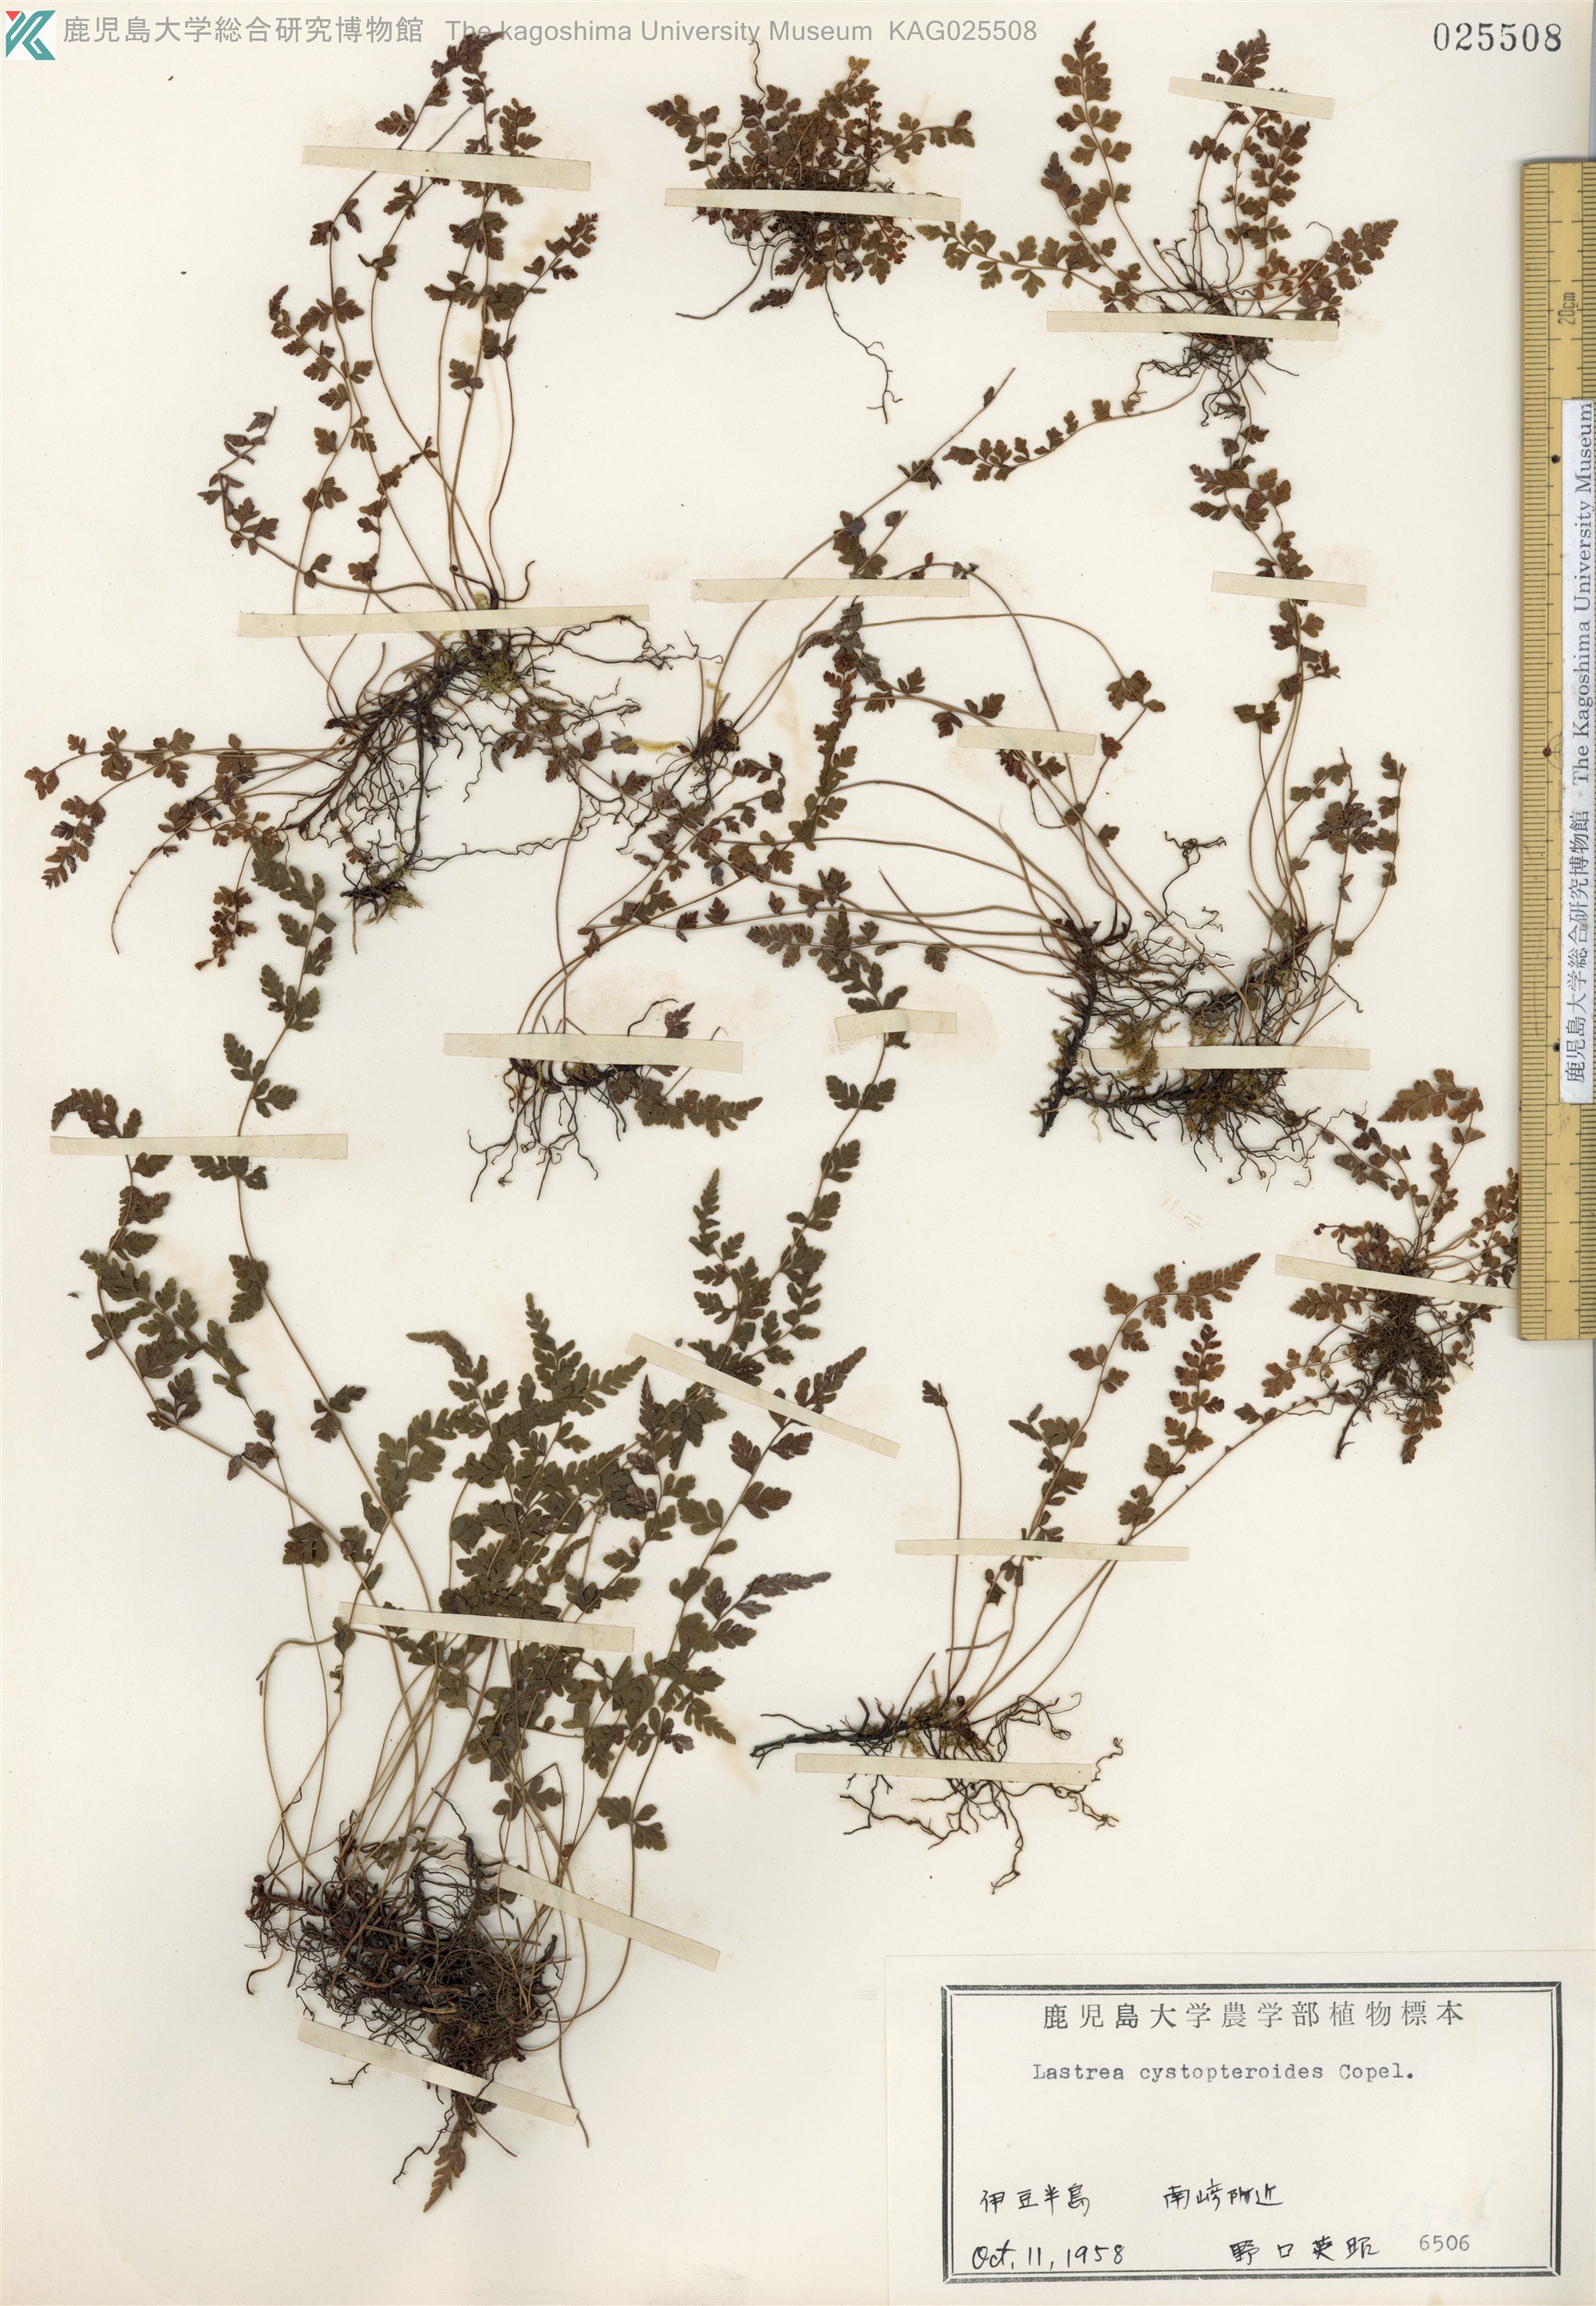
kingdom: Plantae
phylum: Tracheophyta
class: Polypodiopsida
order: Polypodiales
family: Thelypteridaceae
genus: Amauropelta
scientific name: Amauropelta cystopteroides
